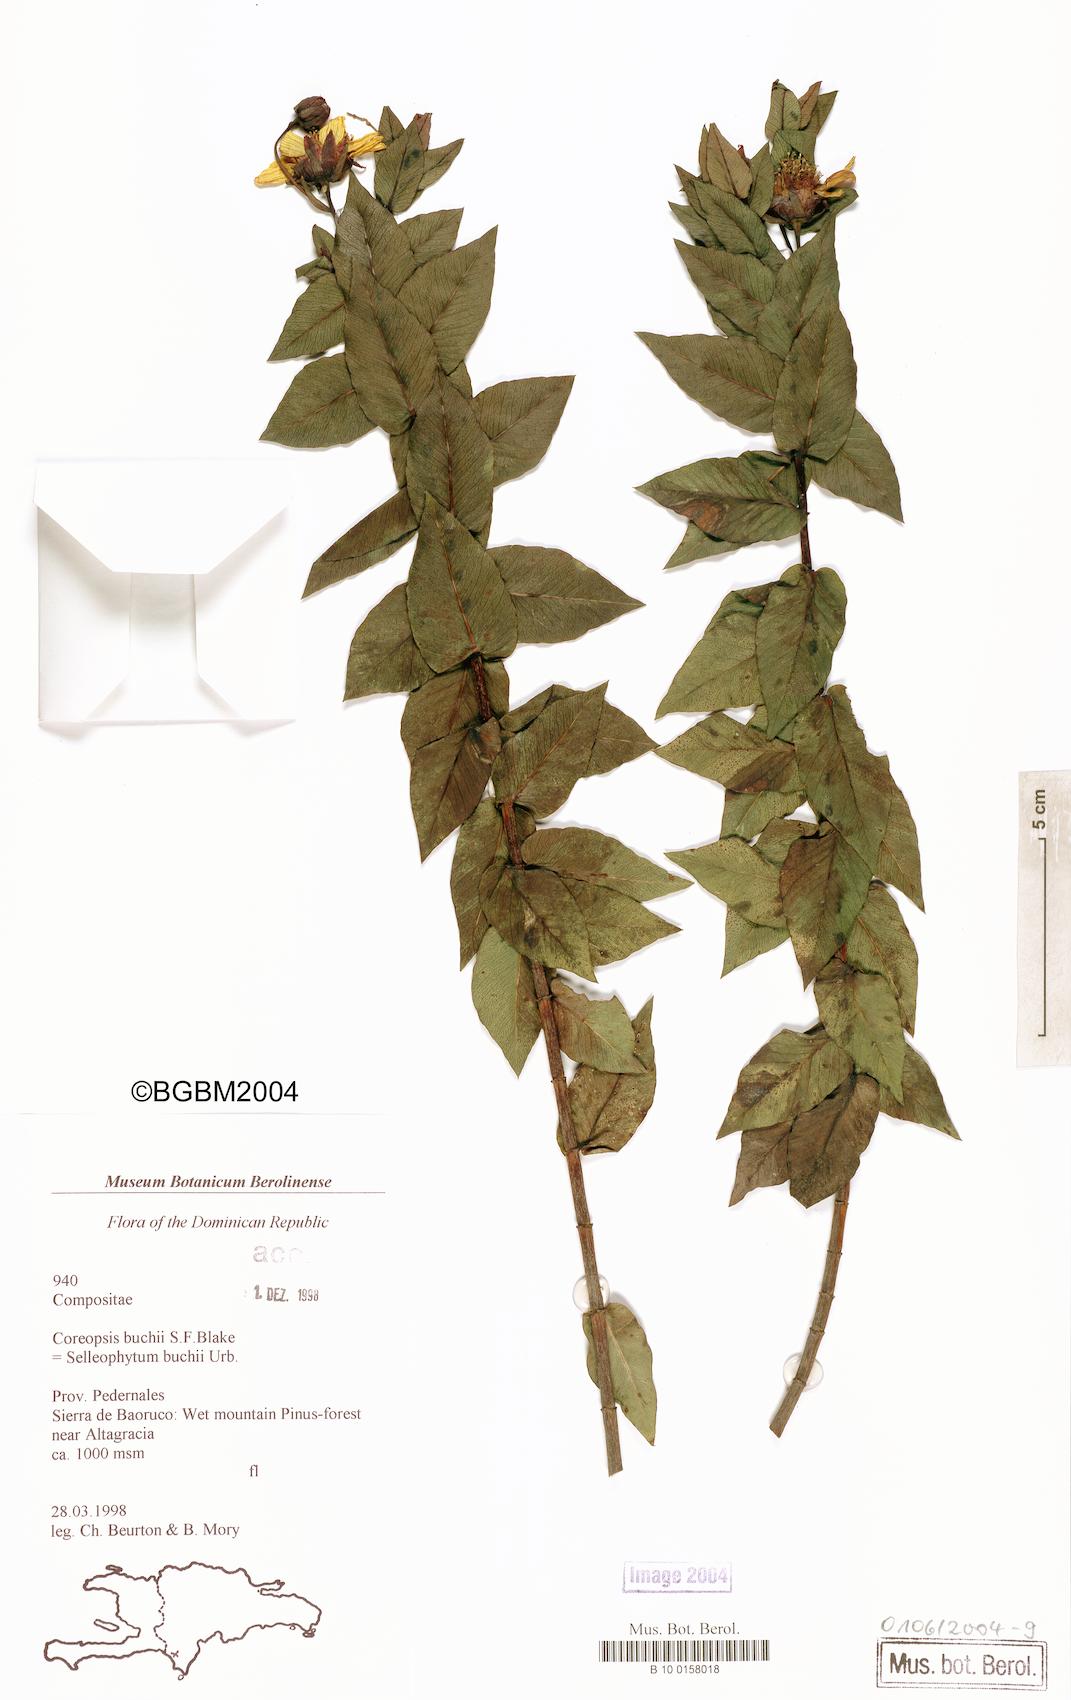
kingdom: Plantae
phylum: Tracheophyta
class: Magnoliopsida
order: Asterales
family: Asteraceae
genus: Coreopsis
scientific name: Coreopsis buchii
